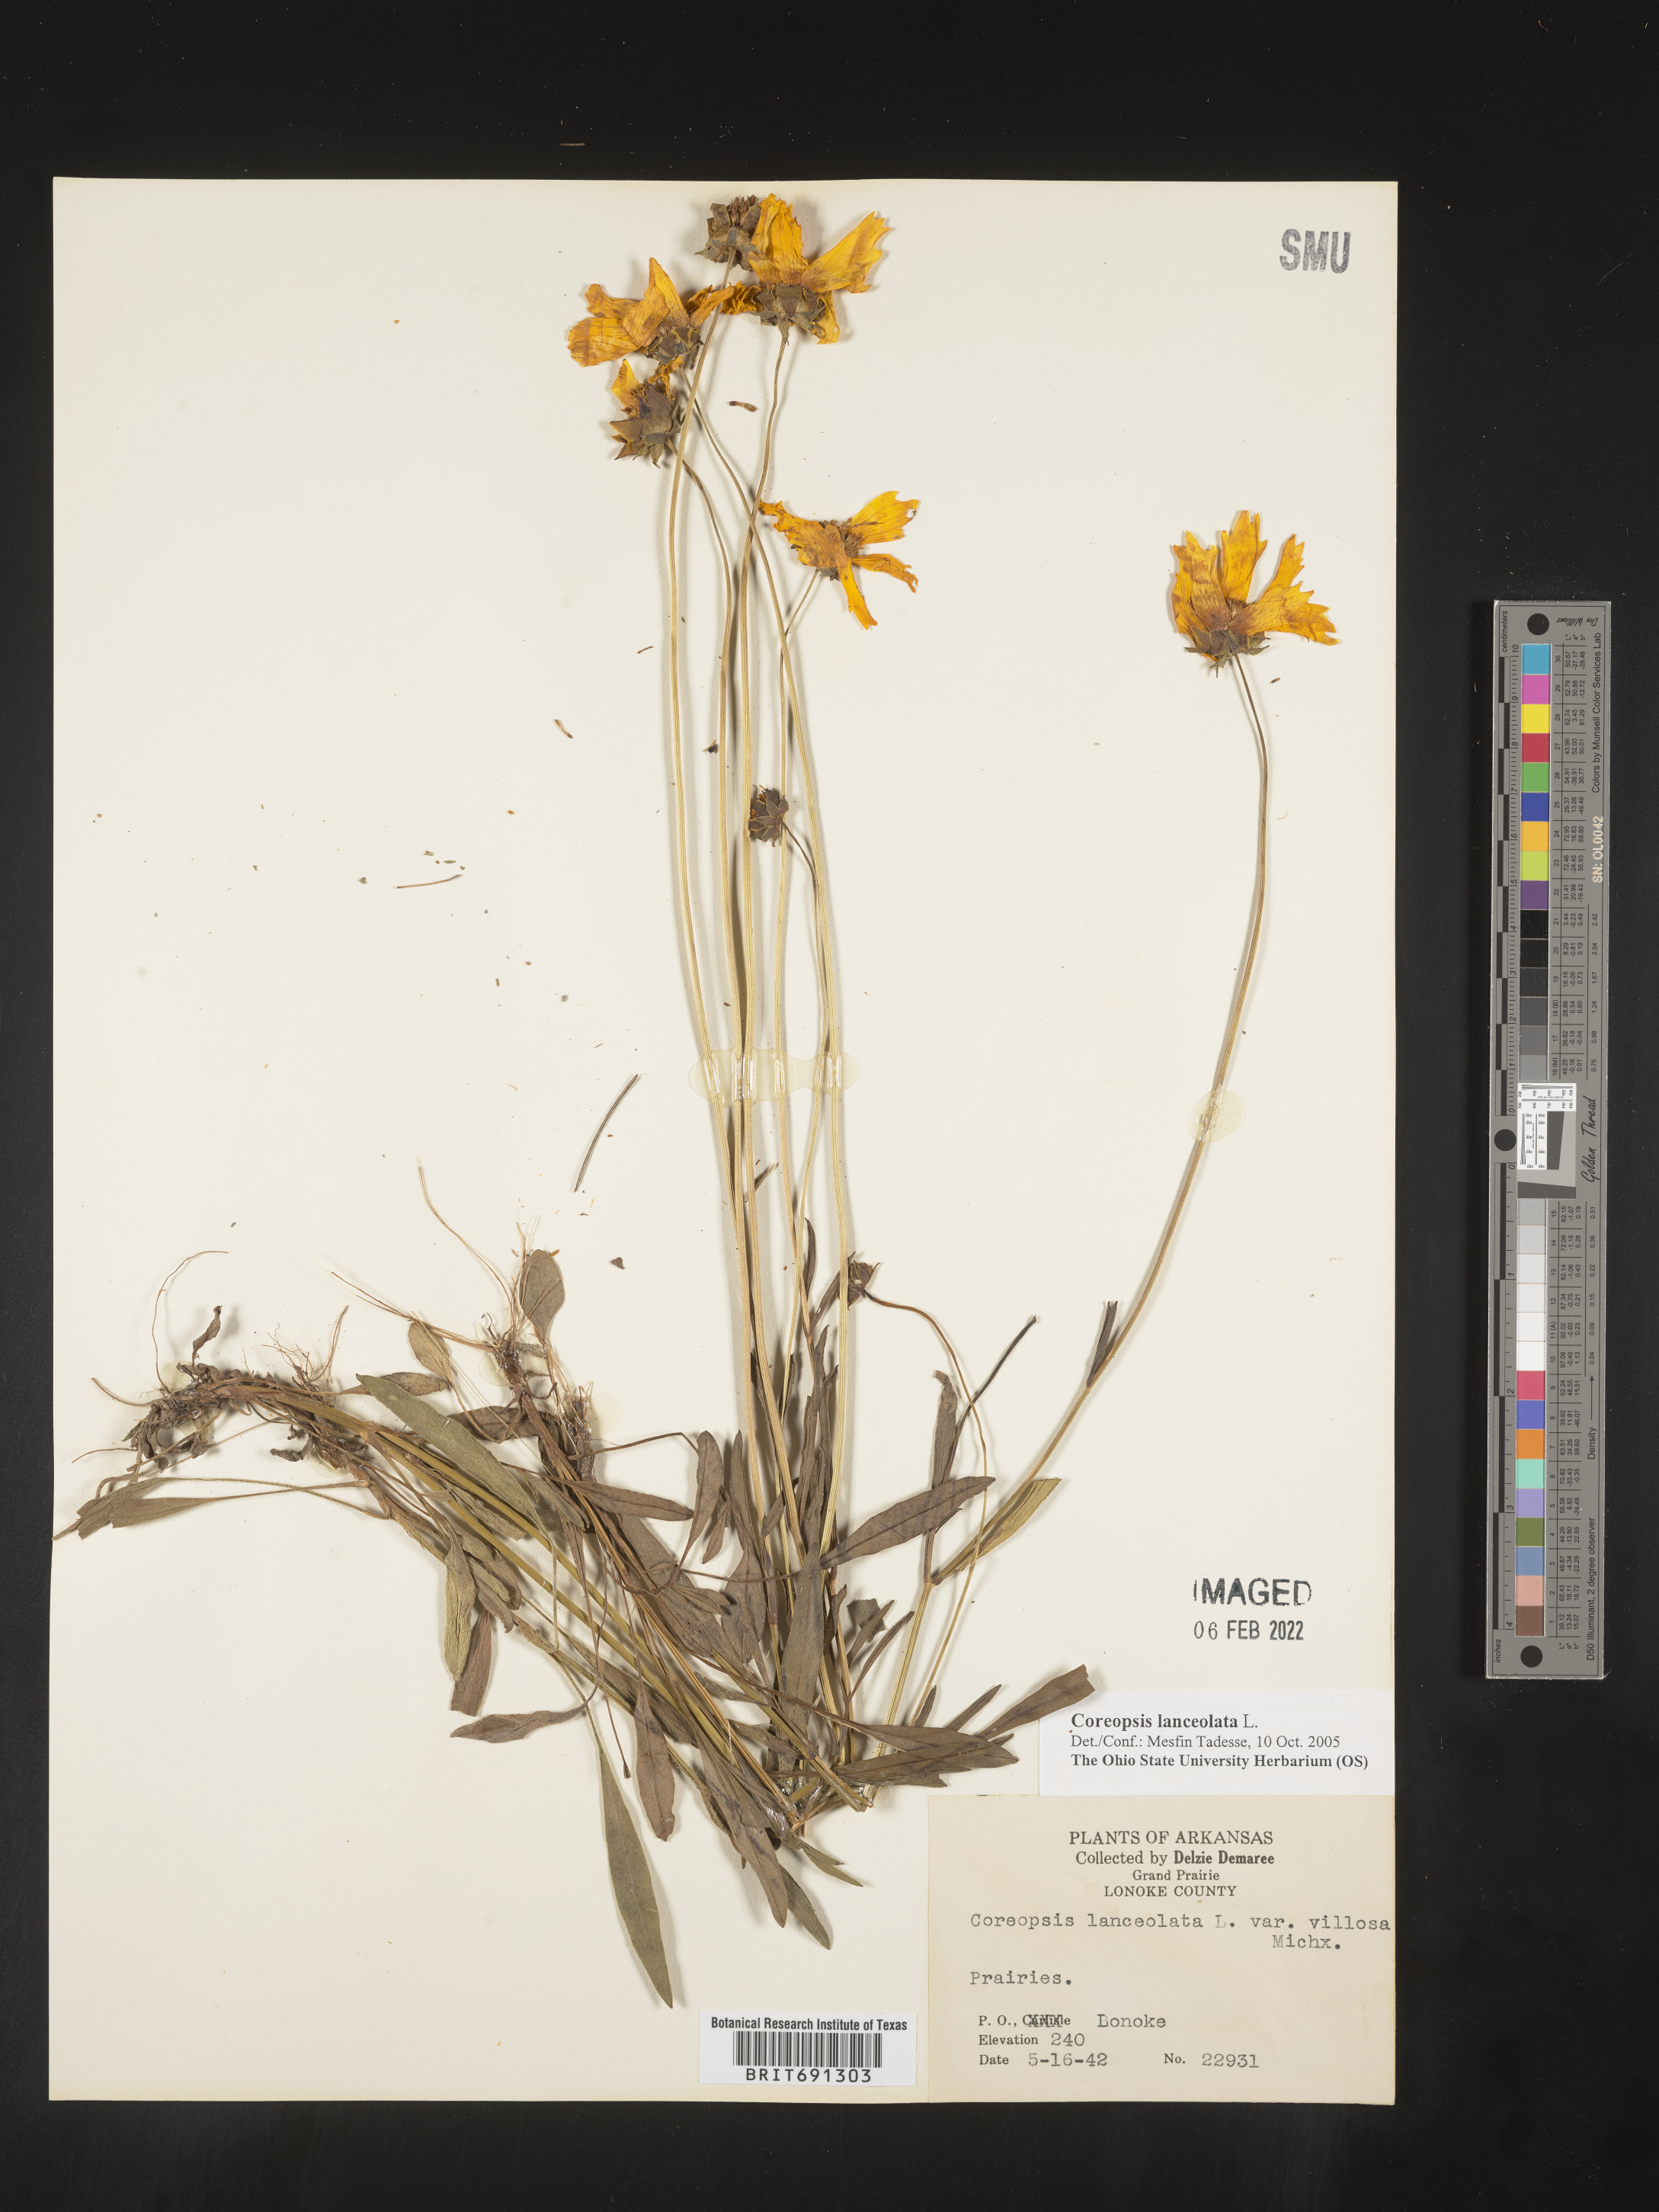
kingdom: Plantae
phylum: Tracheophyta
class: Magnoliopsida
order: Asterales
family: Asteraceae
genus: Coreopsis
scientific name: Coreopsis lanceolata
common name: Garden coreopsis
